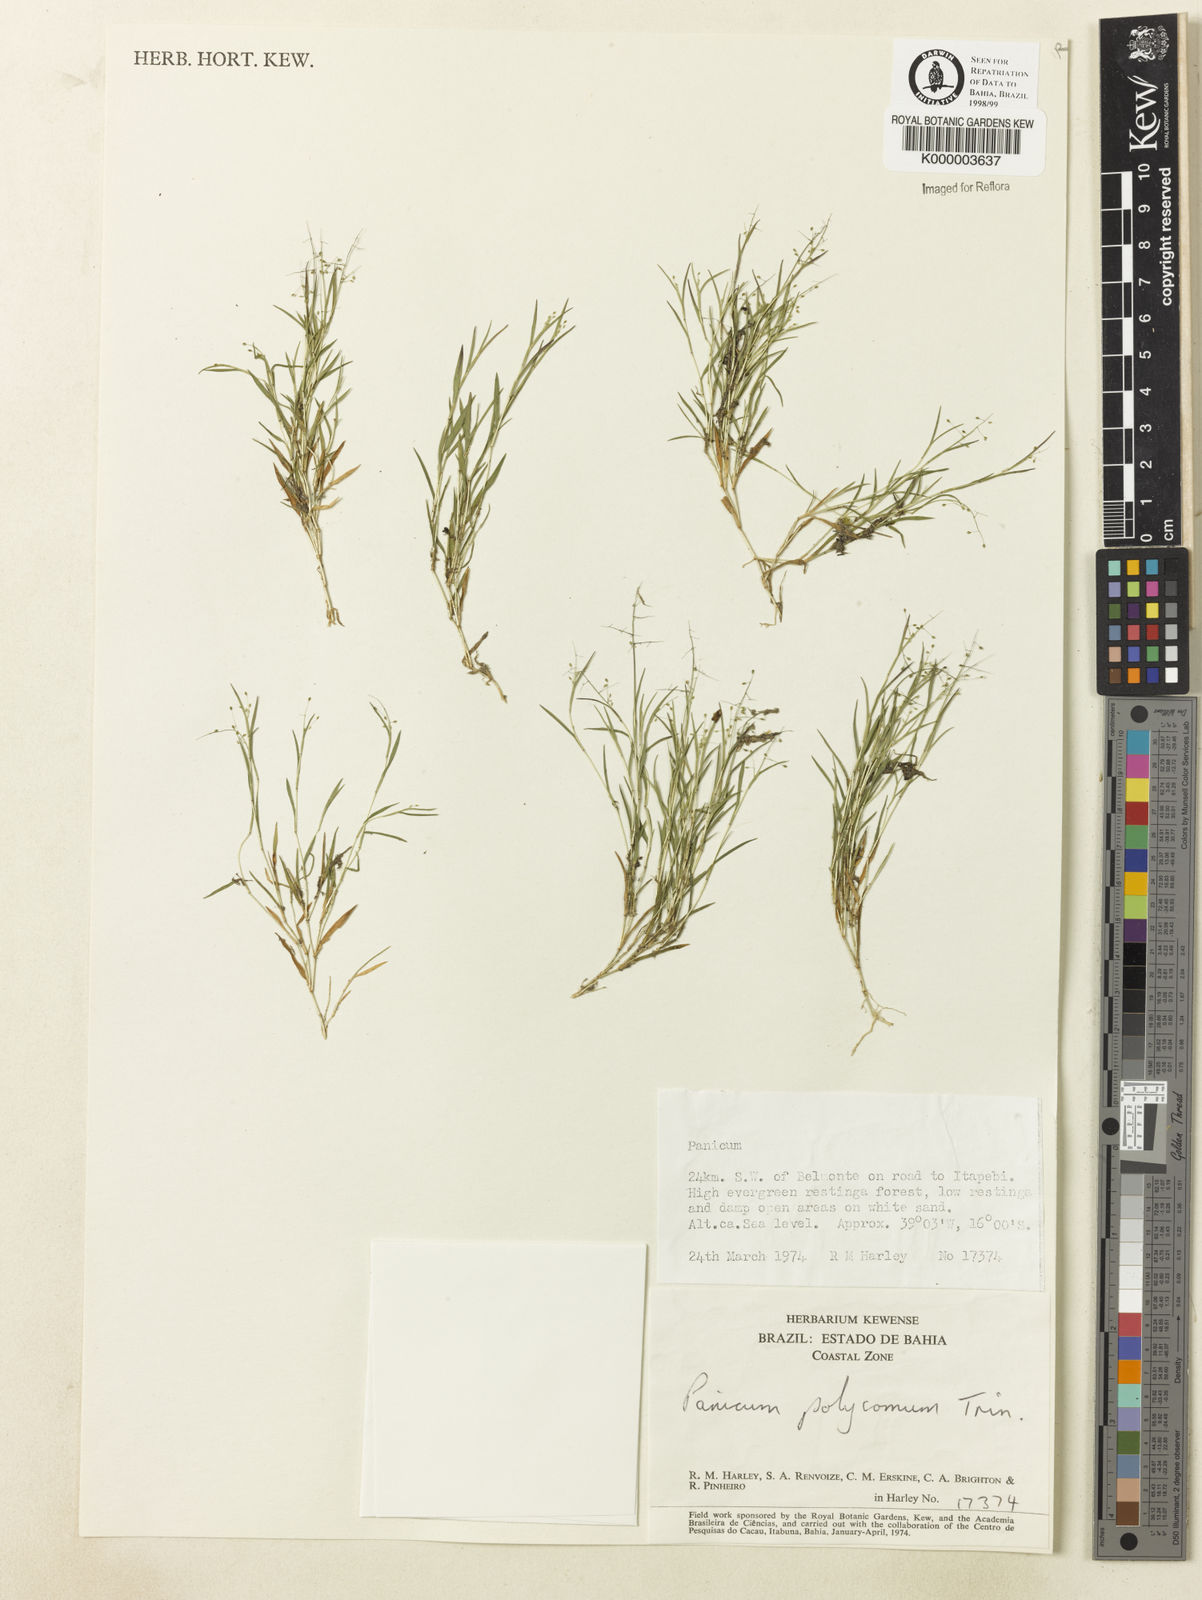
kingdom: Plantae
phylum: Tracheophyta
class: Liliopsida
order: Poales
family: Poaceae
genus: Trichanthecium
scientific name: Trichanthecium polycomum
